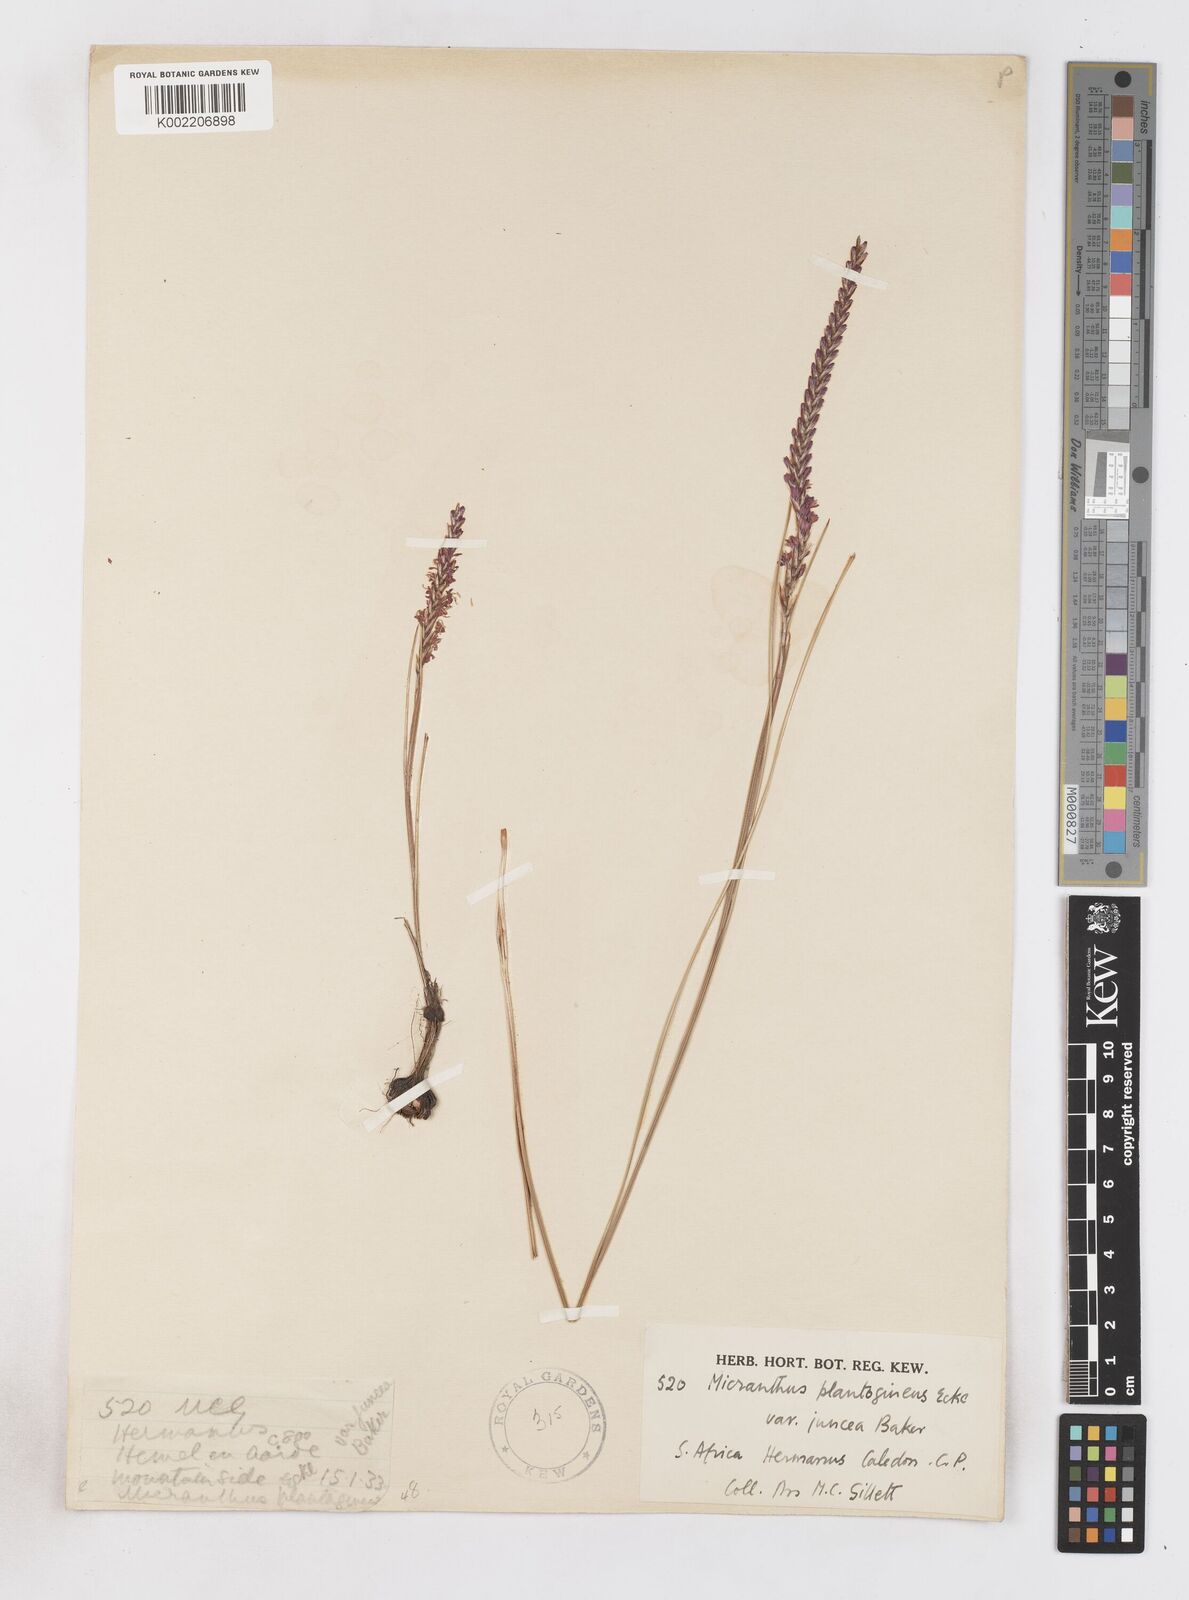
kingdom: Plantae
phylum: Tracheophyta
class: Liliopsida
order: Asparagales
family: Iridaceae
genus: Micranthus
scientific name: Micranthus plantagineus
